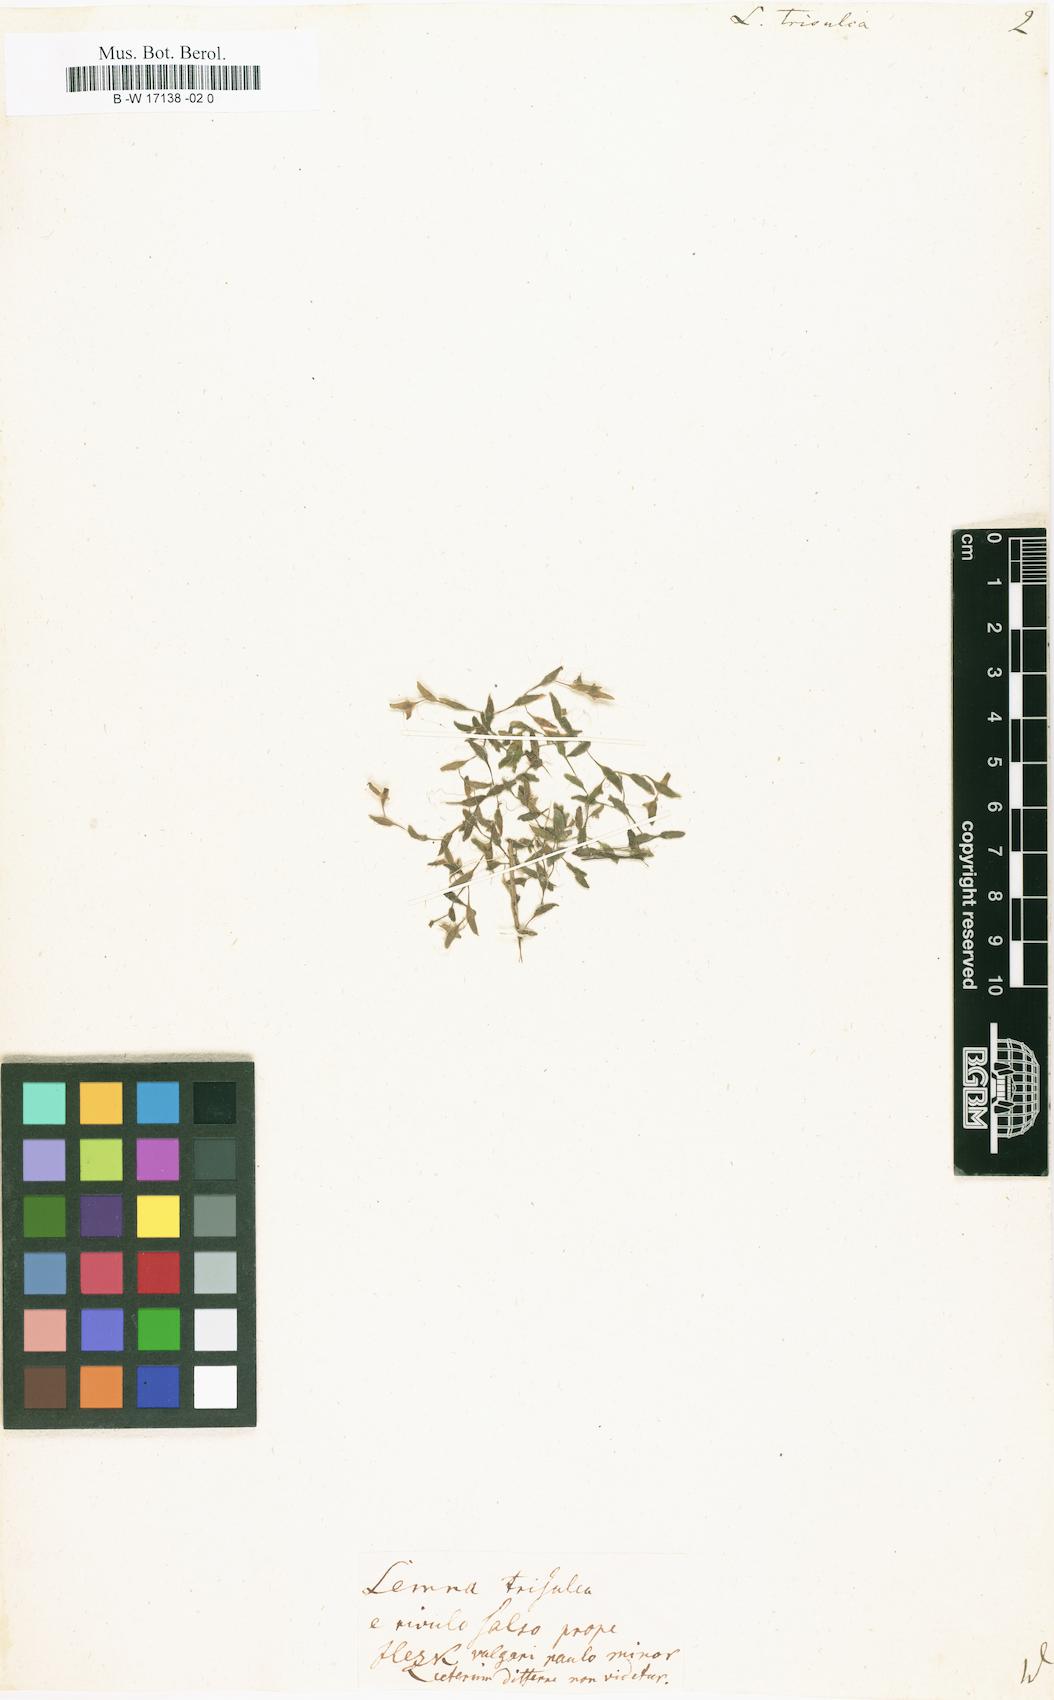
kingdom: Plantae
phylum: Tracheophyta
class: Liliopsida
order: Alismatales
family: Araceae
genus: Lemna
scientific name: Lemna trisulca
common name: Ivy-leaved duckweed
